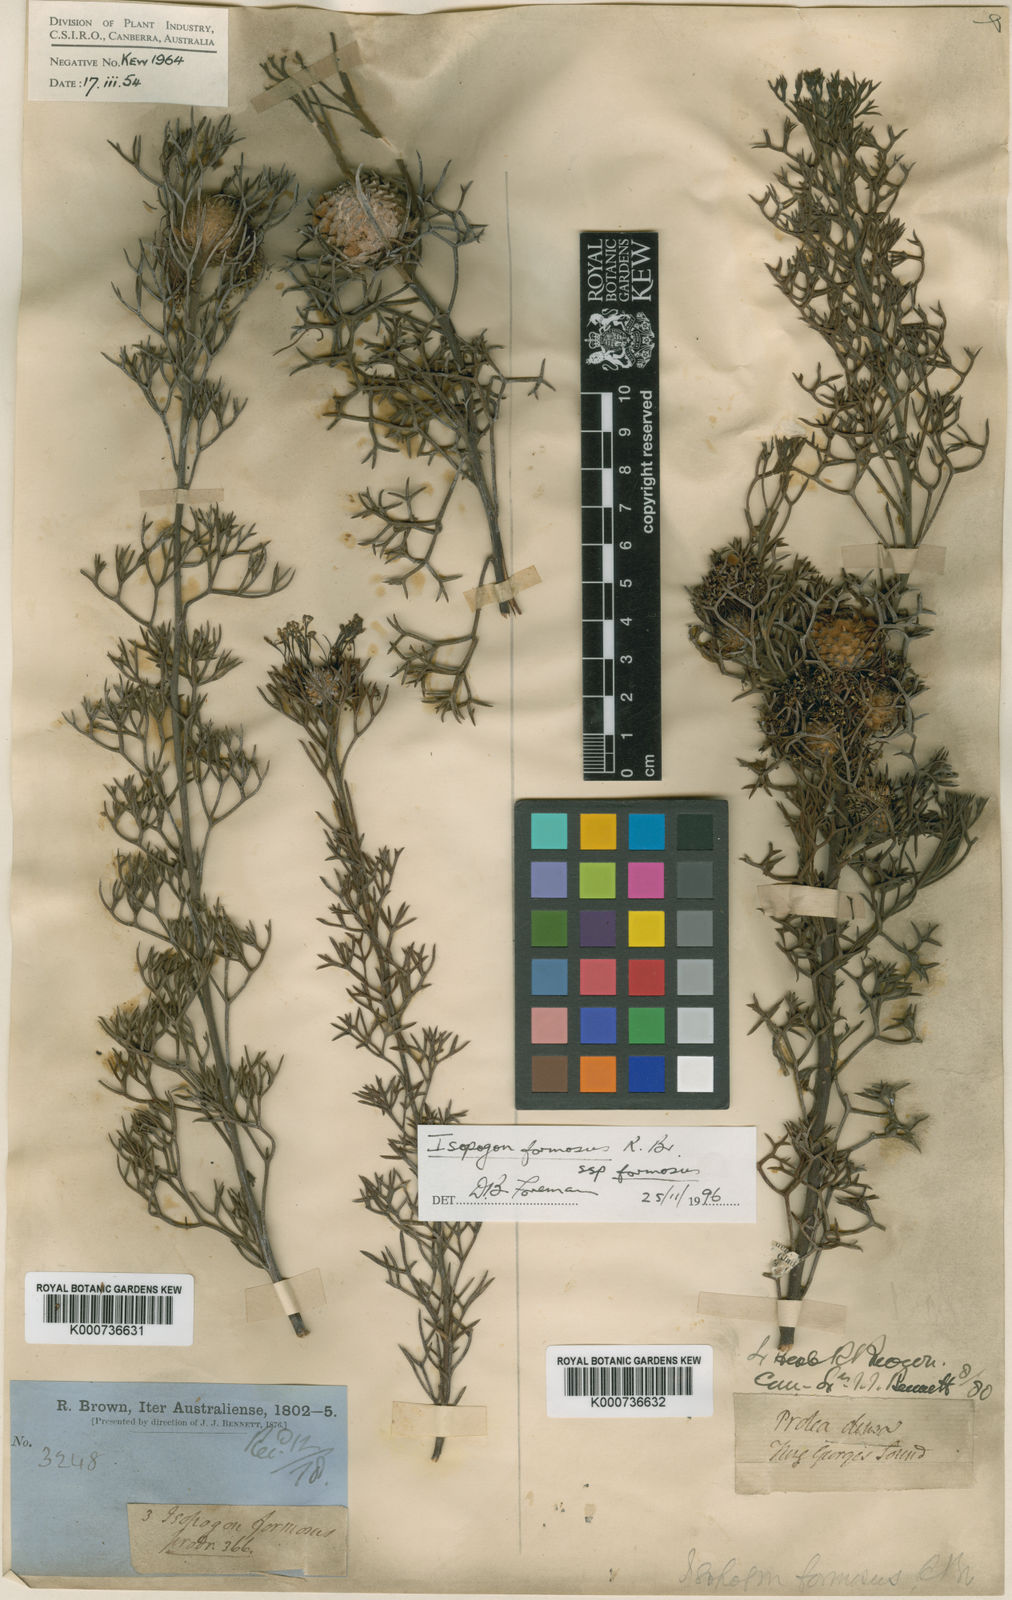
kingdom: Plantae
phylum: Tracheophyta
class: Magnoliopsida
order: Proteales
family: Proteaceae
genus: Isopogon
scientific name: Isopogon formosus
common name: Rose-coneflower
